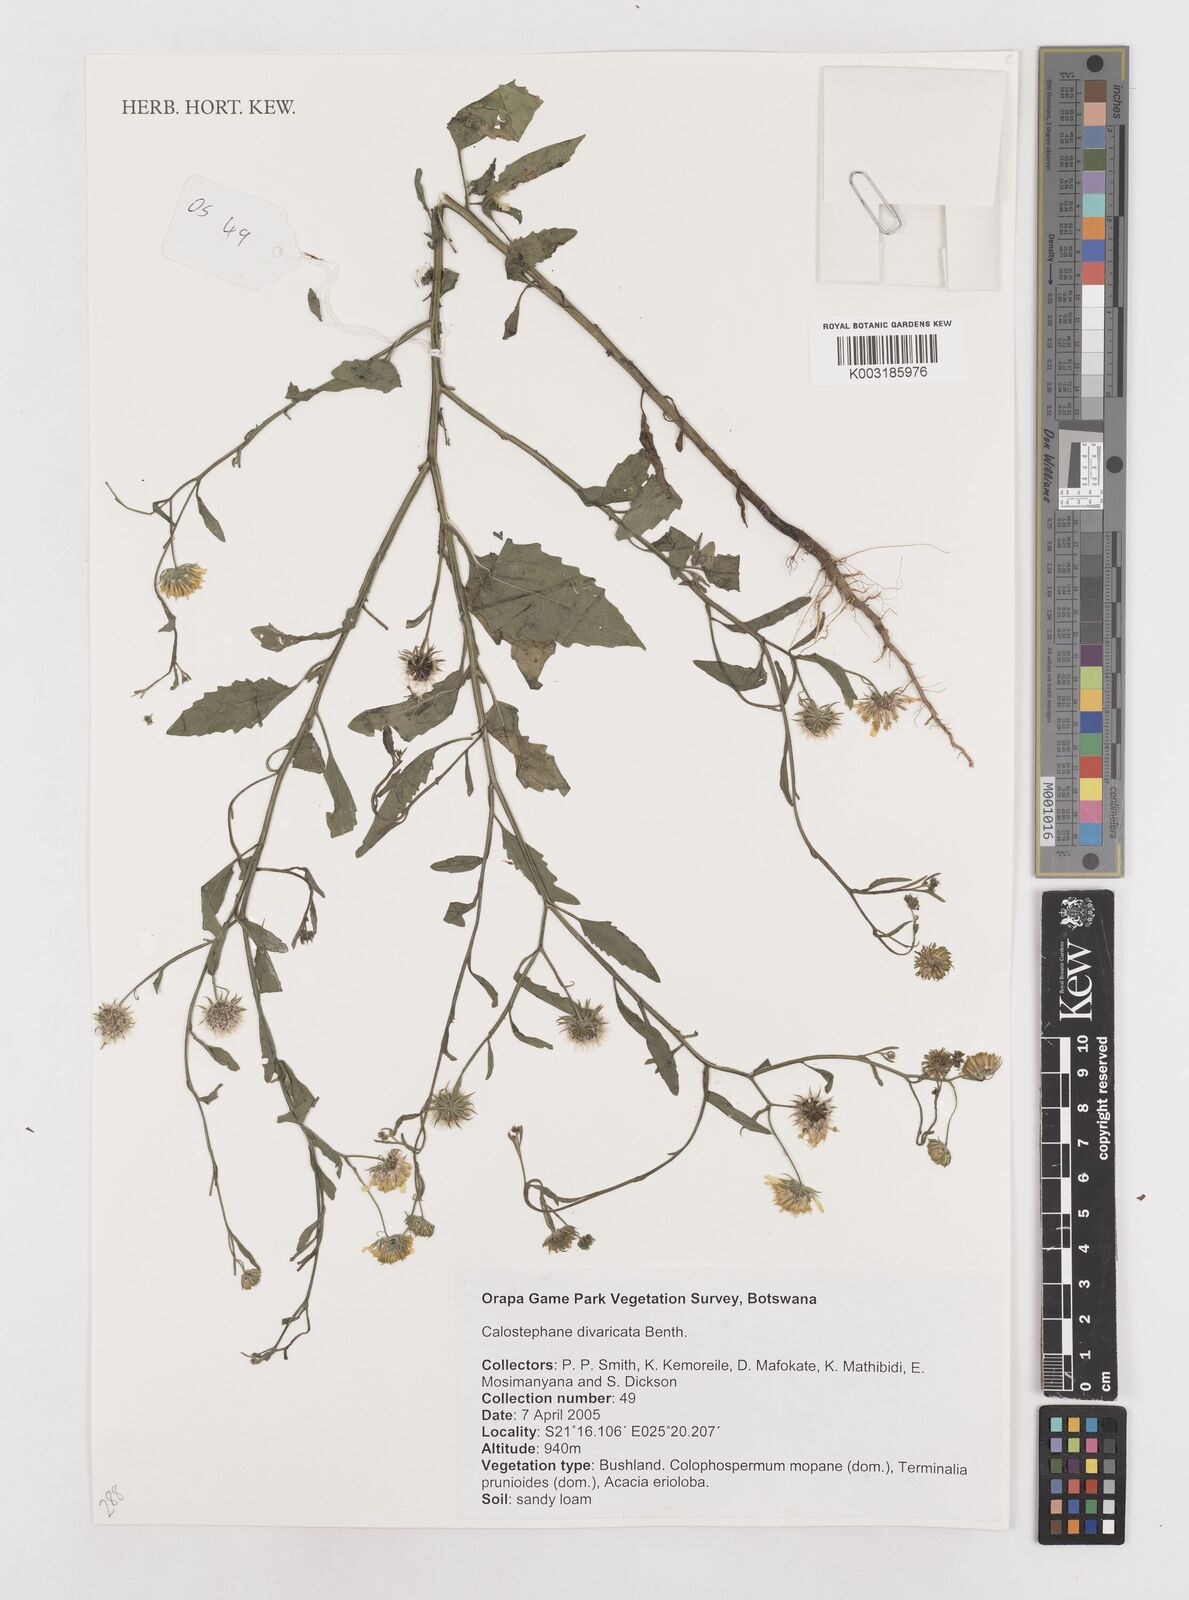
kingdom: Plantae
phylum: Tracheophyta
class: Magnoliopsida
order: Asterales
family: Asteraceae
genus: Calostephane
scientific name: Calostephane divaricata
